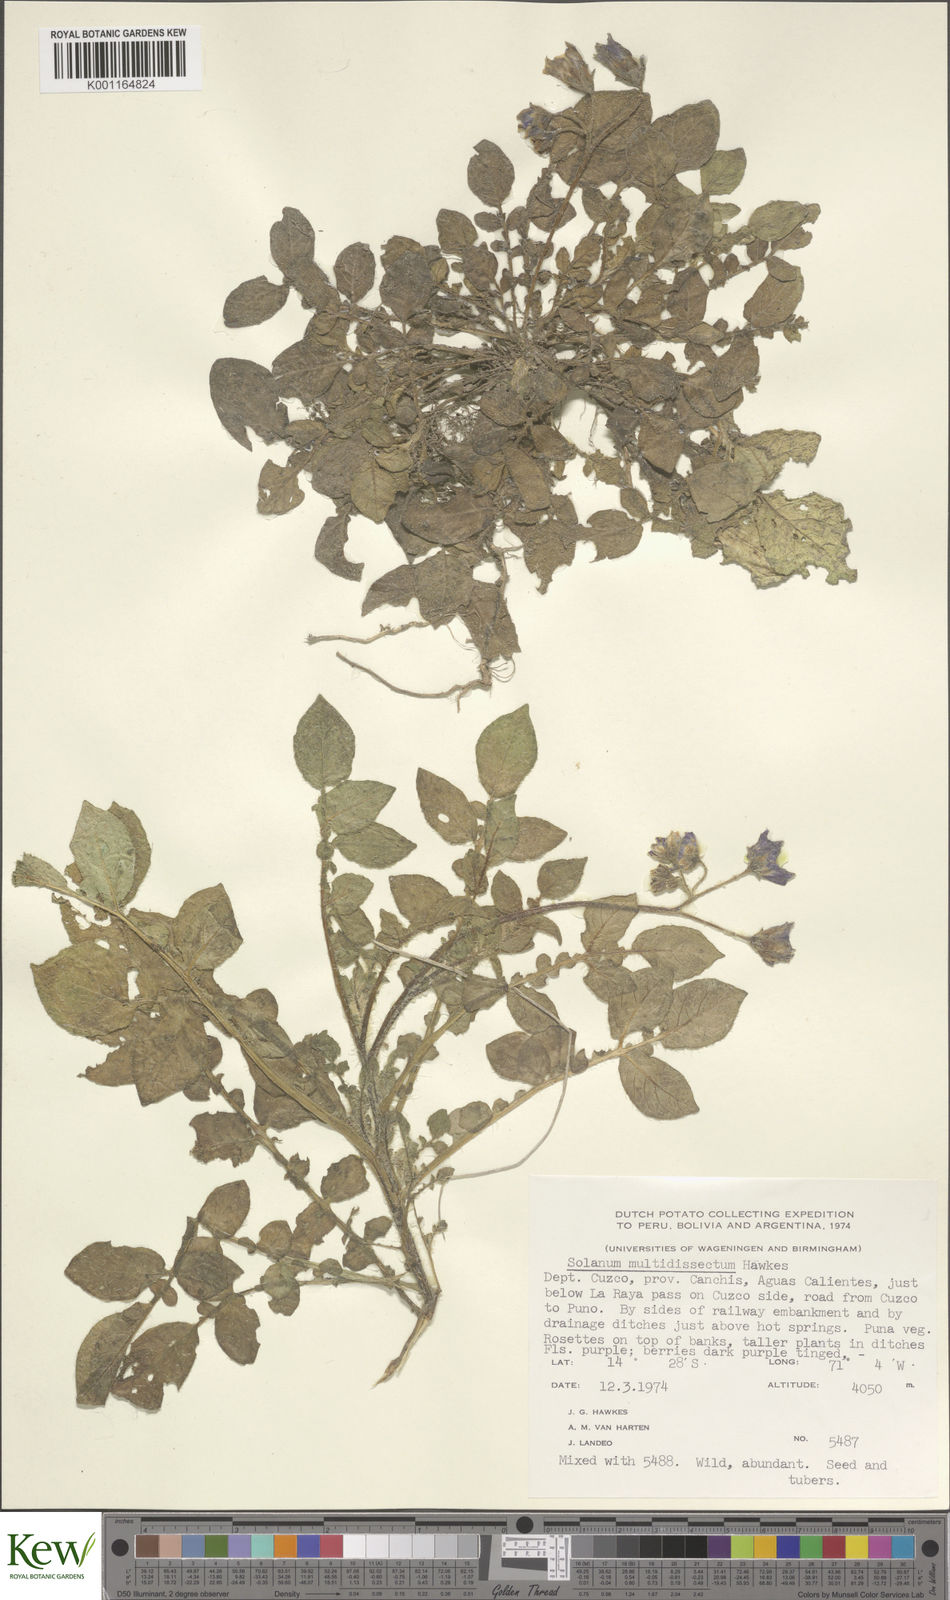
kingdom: Plantae
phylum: Tracheophyta
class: Magnoliopsida
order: Solanales
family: Solanaceae
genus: Solanum
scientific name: Solanum candolleanum
